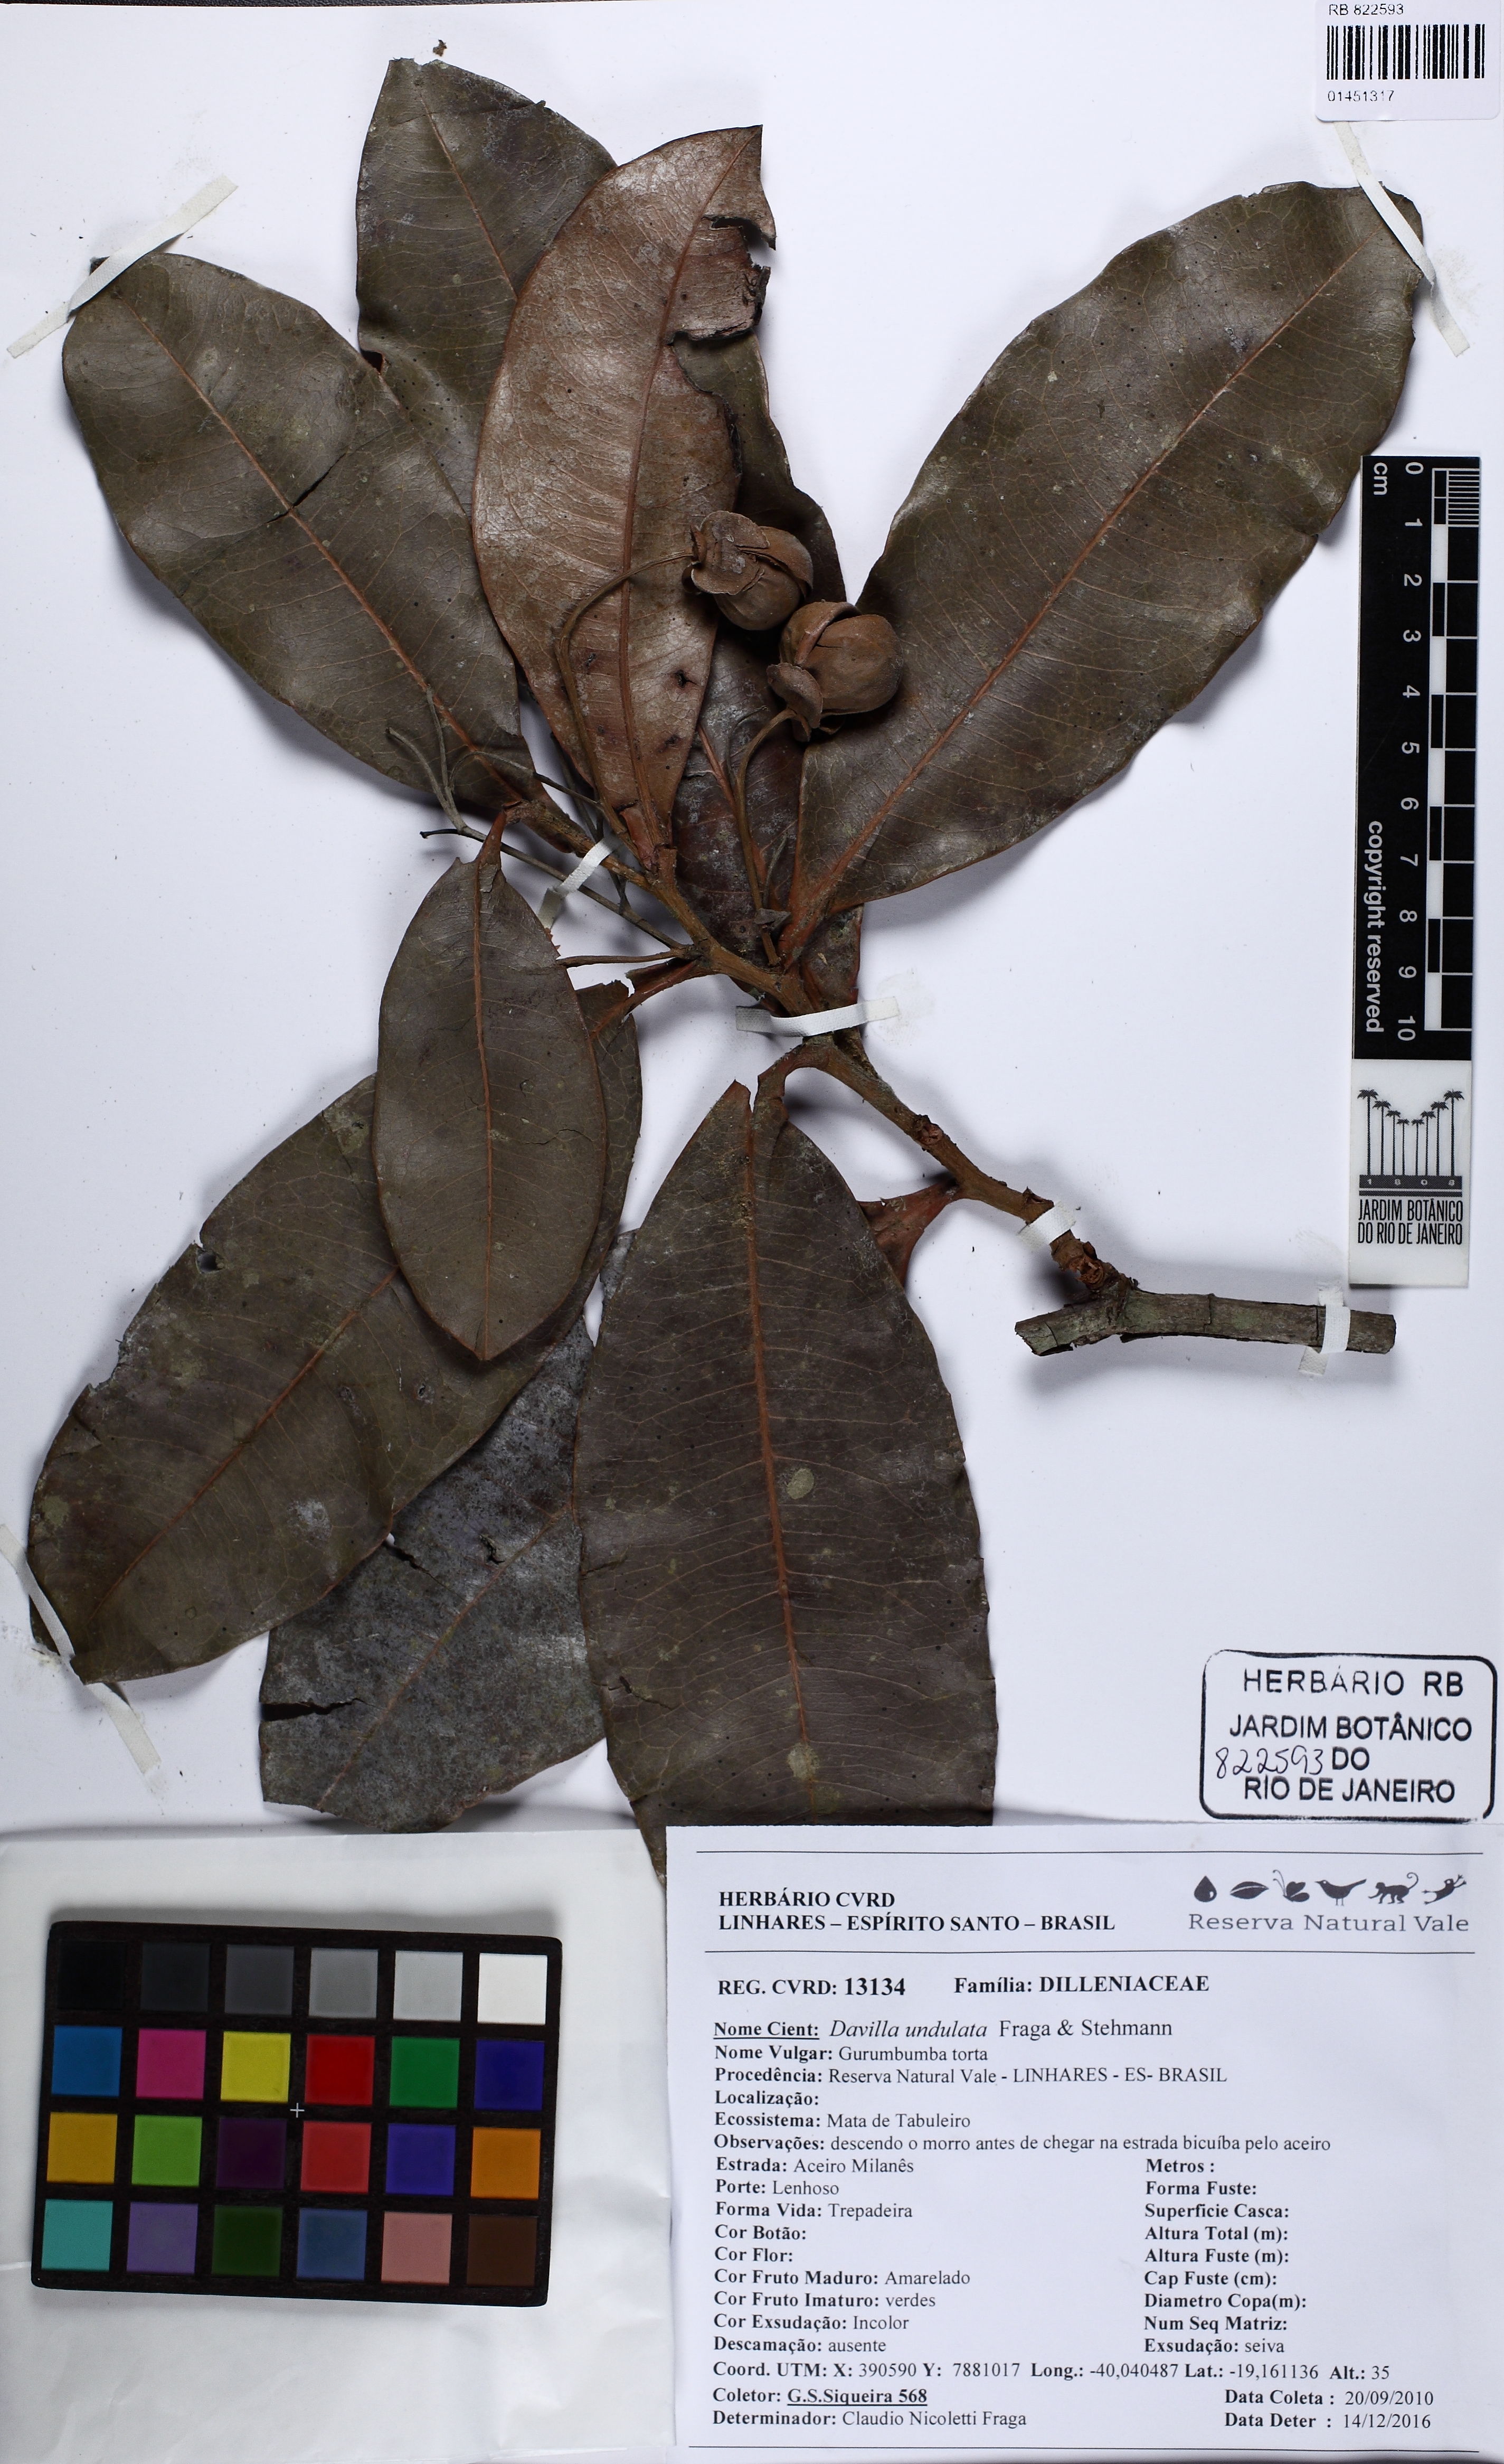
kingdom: Plantae
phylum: Tracheophyta
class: Magnoliopsida
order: Dilleniales
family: Dilleniaceae
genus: Davilla
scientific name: Davilla undulata
